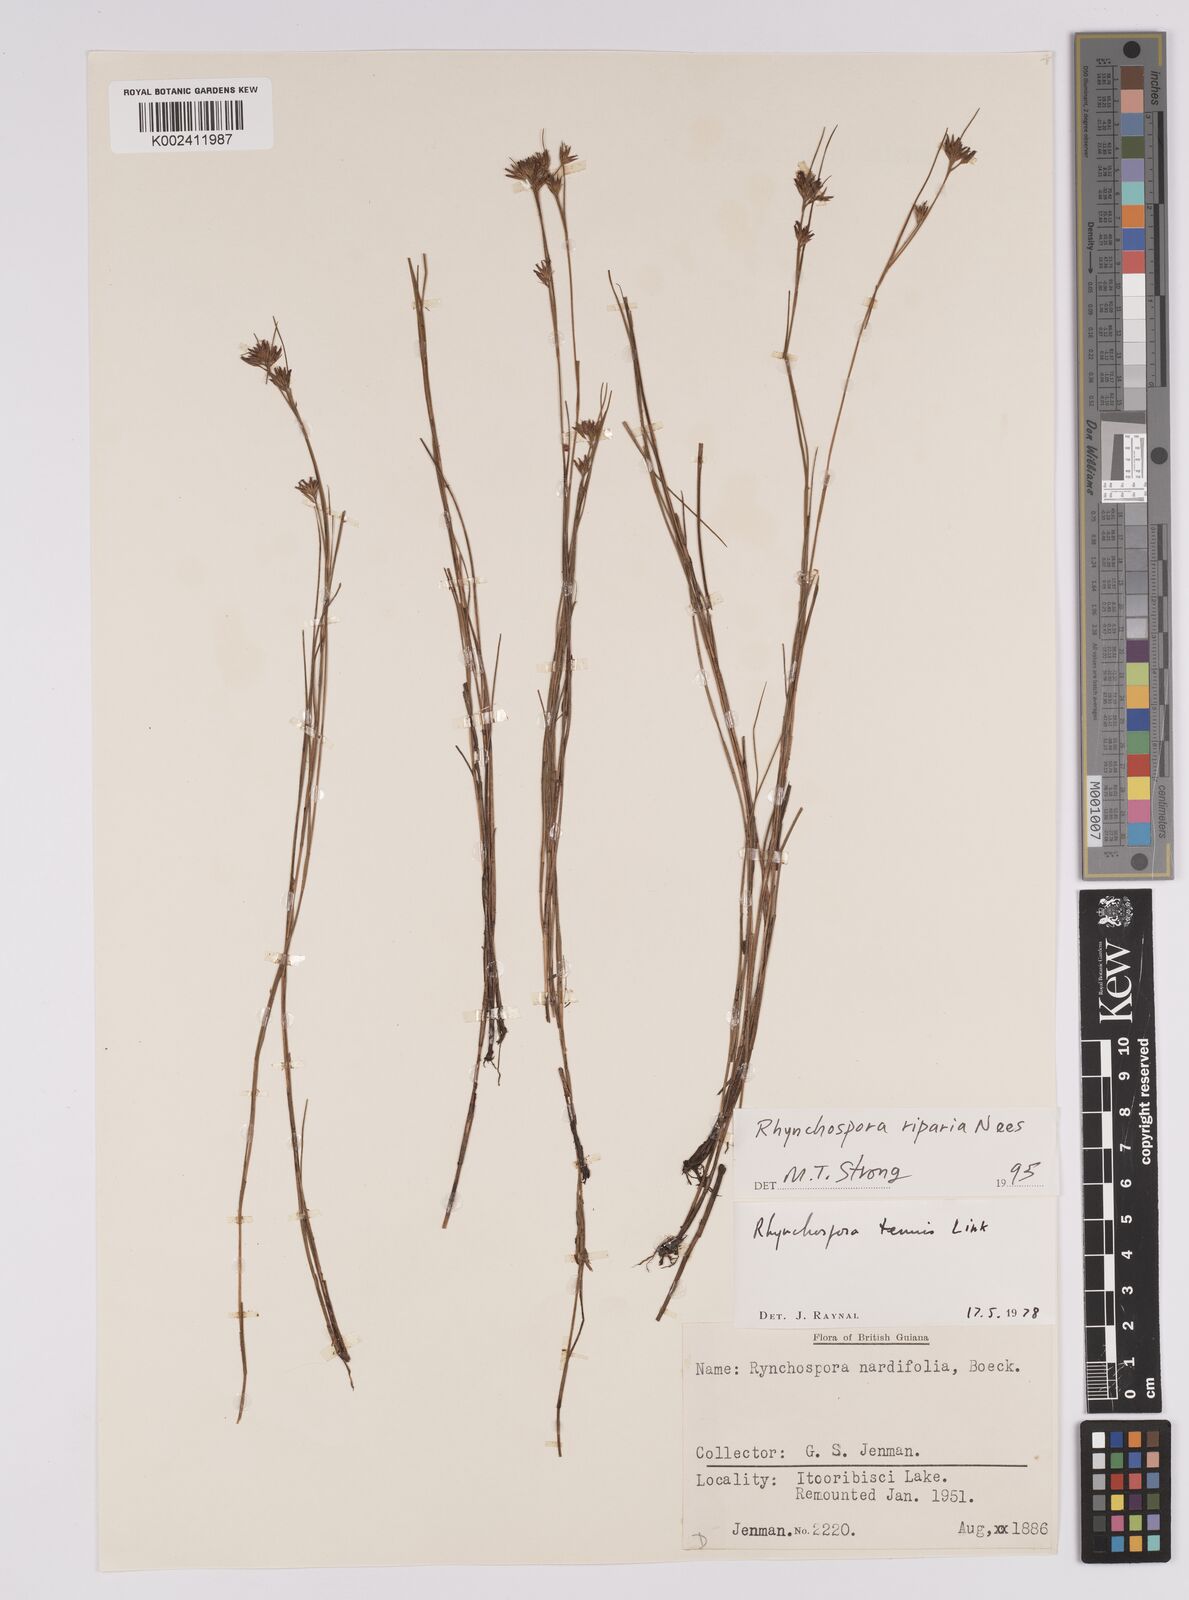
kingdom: Plantae
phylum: Tracheophyta
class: Liliopsida
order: Poales
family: Cyperaceae
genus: Rhynchospora
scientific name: Rhynchospora riparia
